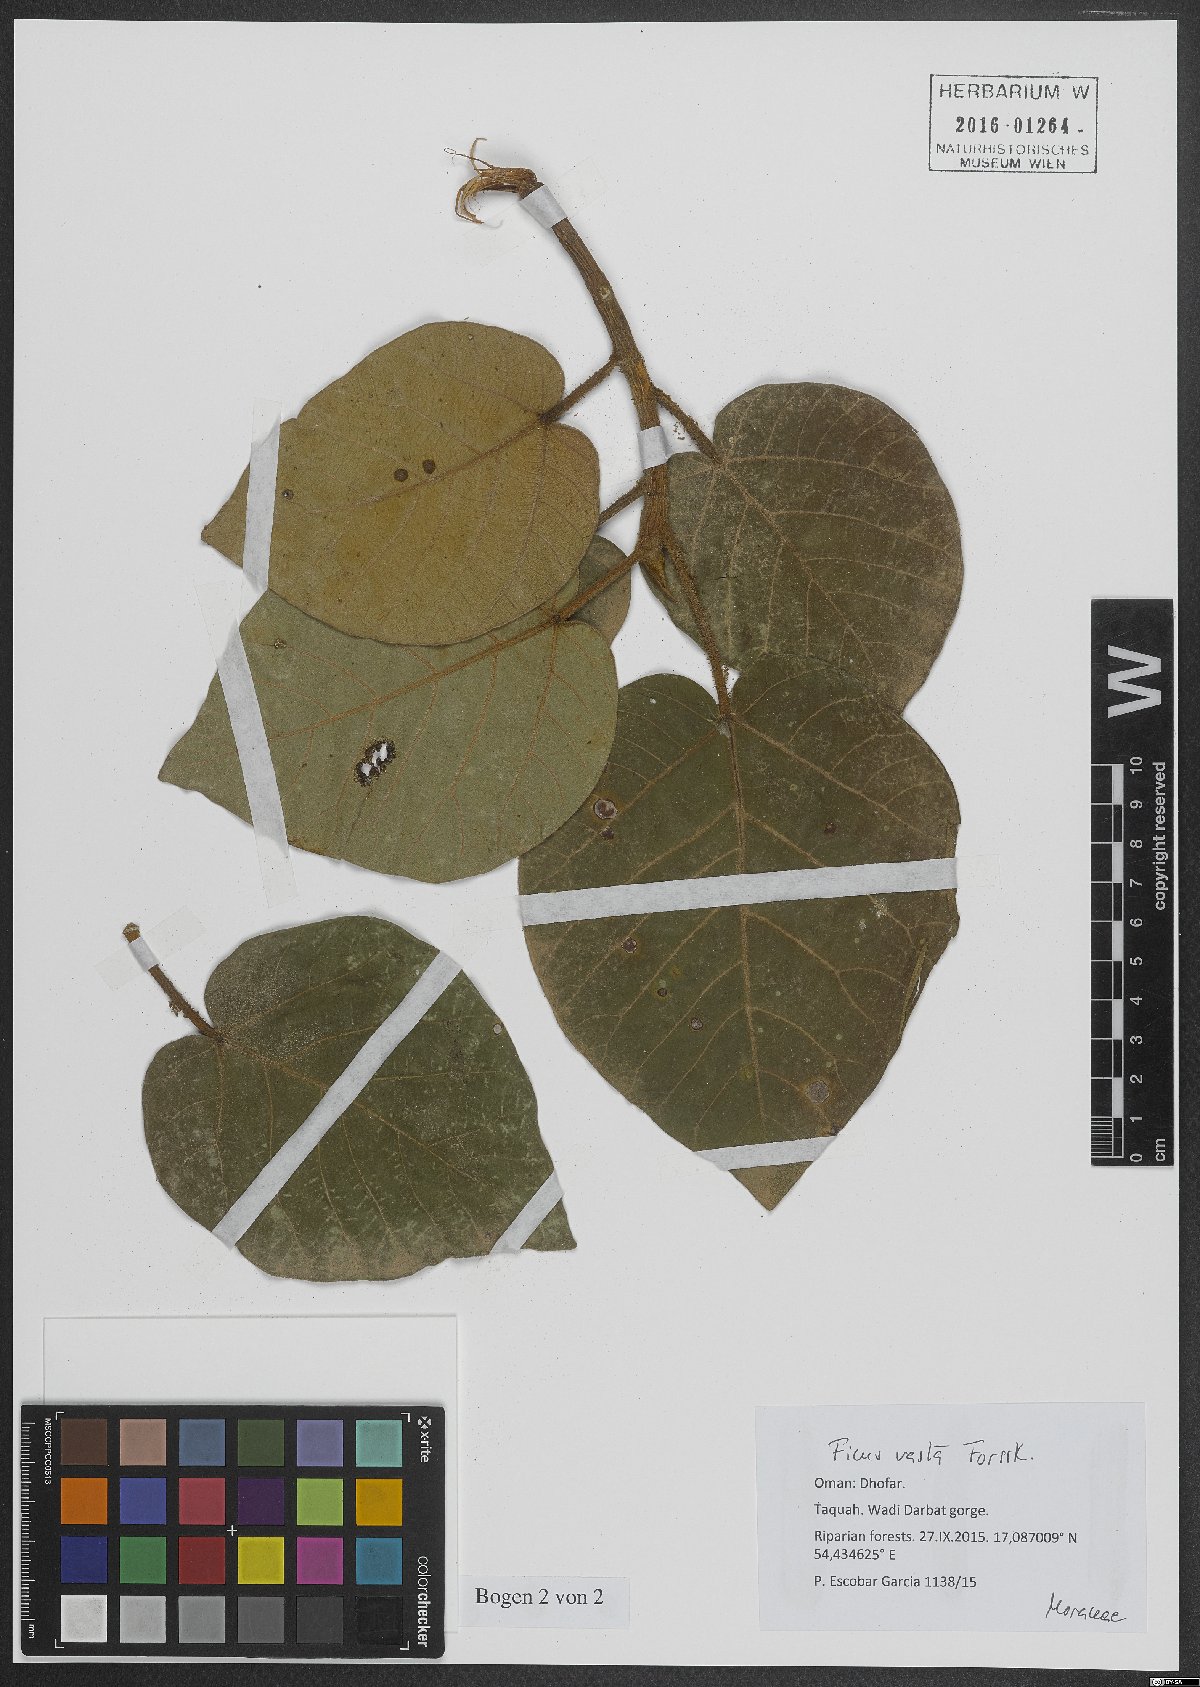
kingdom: Plantae
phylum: Tracheophyta
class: Magnoliopsida
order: Rosales
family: Moraceae
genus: Ficus
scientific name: Ficus vasta
